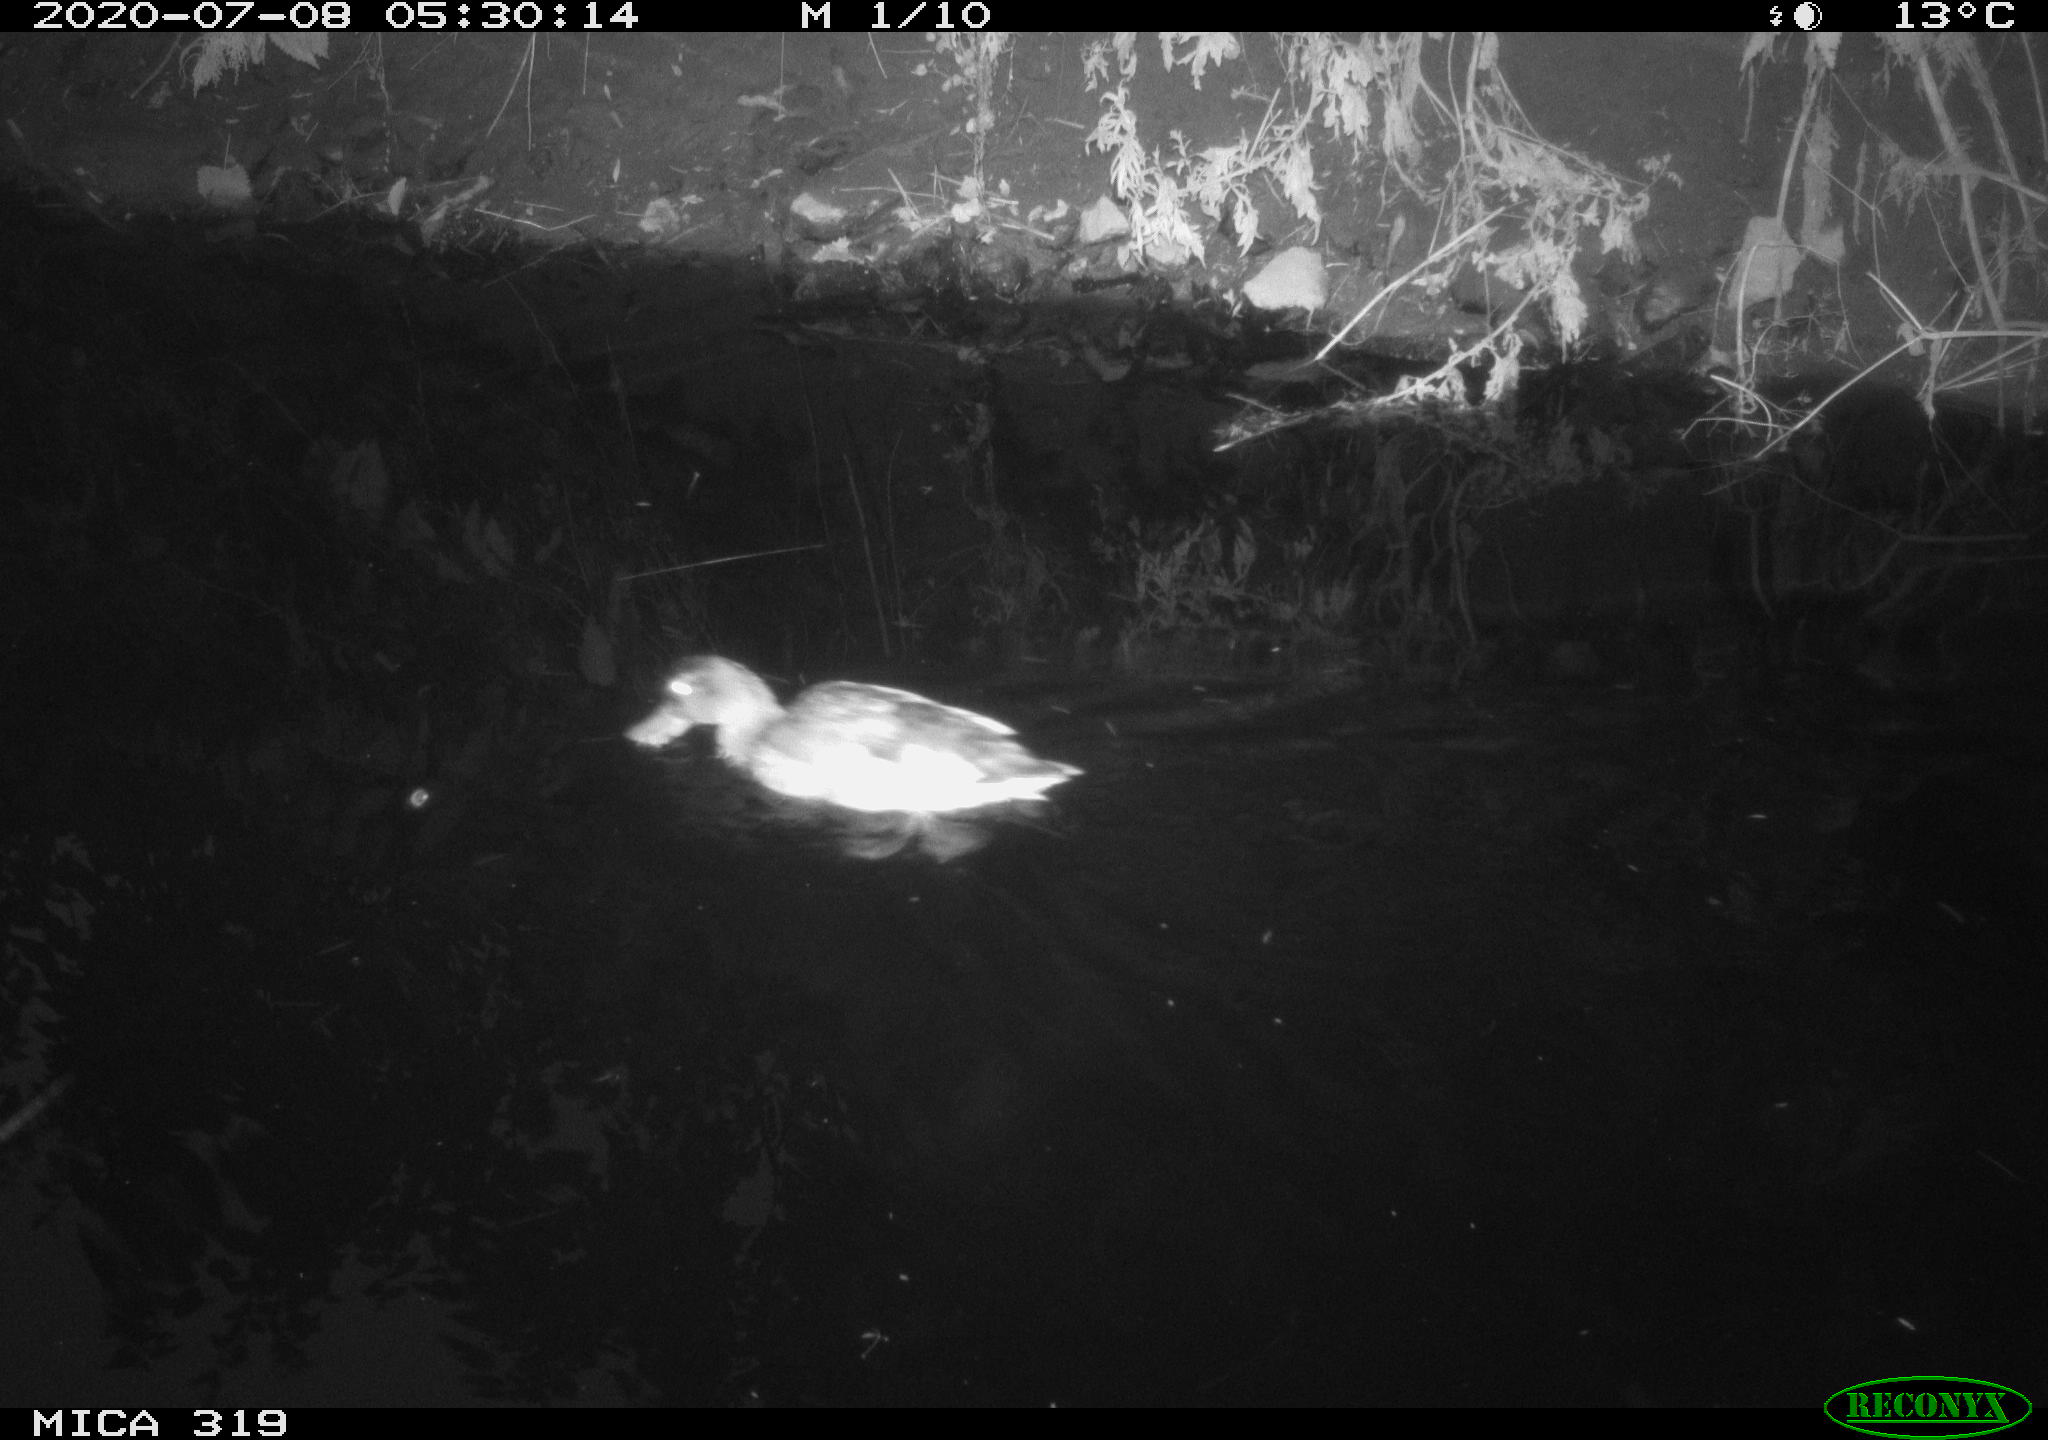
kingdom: Animalia
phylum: Chordata
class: Aves
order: Anseriformes
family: Anatidae
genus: Anas
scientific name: Anas platyrhynchos
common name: Mallard
